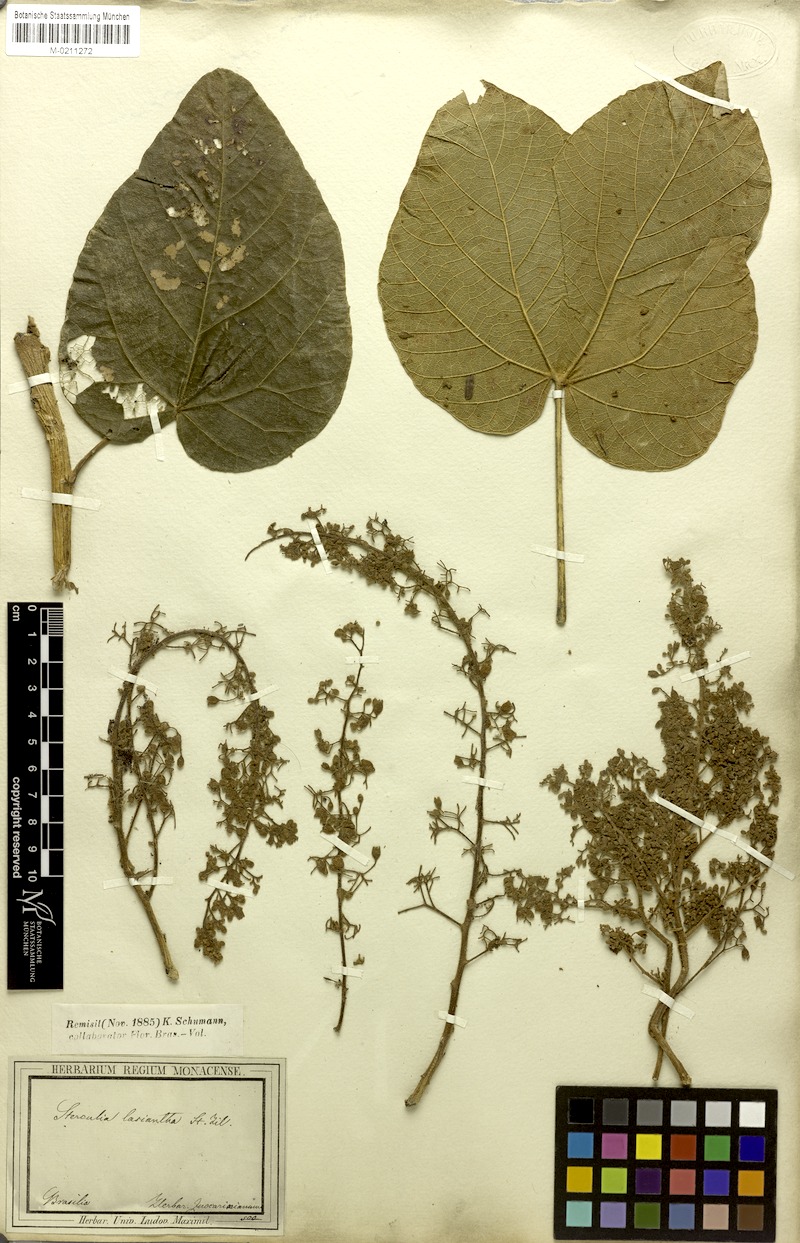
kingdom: Plantae
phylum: Tracheophyta
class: Magnoliopsida
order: Malvales
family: Malvaceae
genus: Sterculia
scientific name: Sterculia striata
